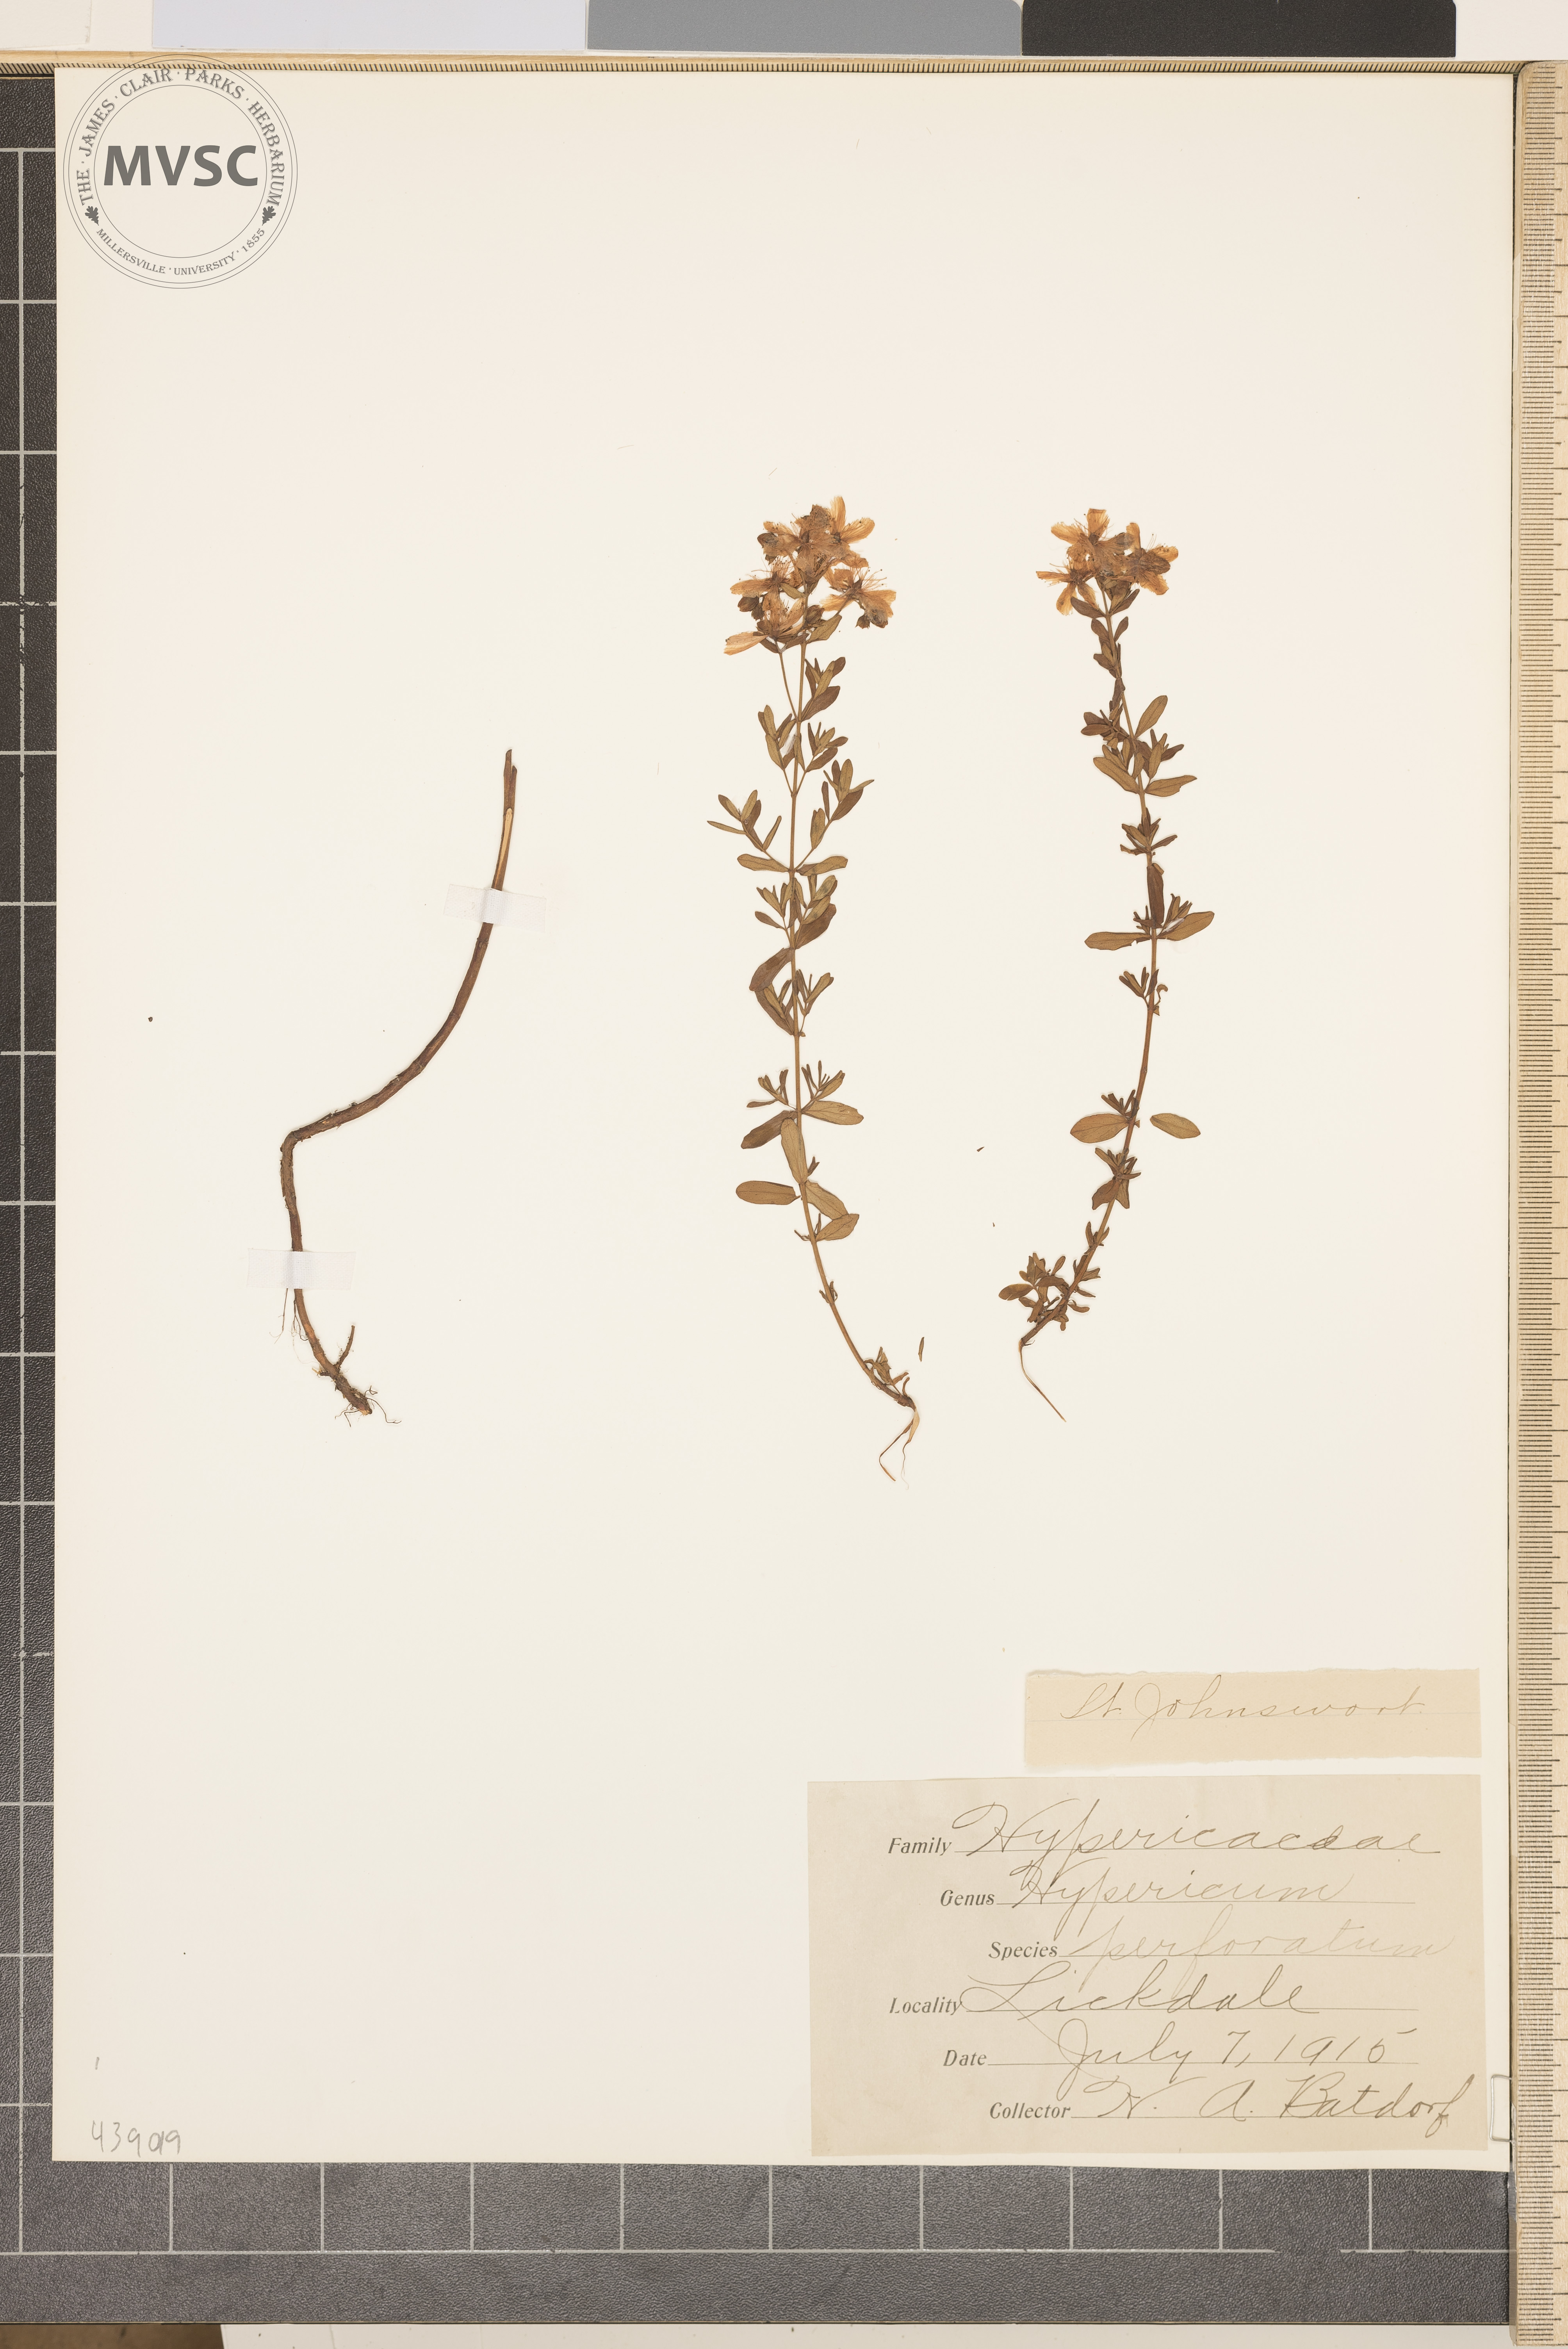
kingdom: Plantae
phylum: Tracheophyta
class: Magnoliopsida
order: Malpighiales
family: Hypericaceae
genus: Hypericum
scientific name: Hypericum perforatum
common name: St. Johnswort
